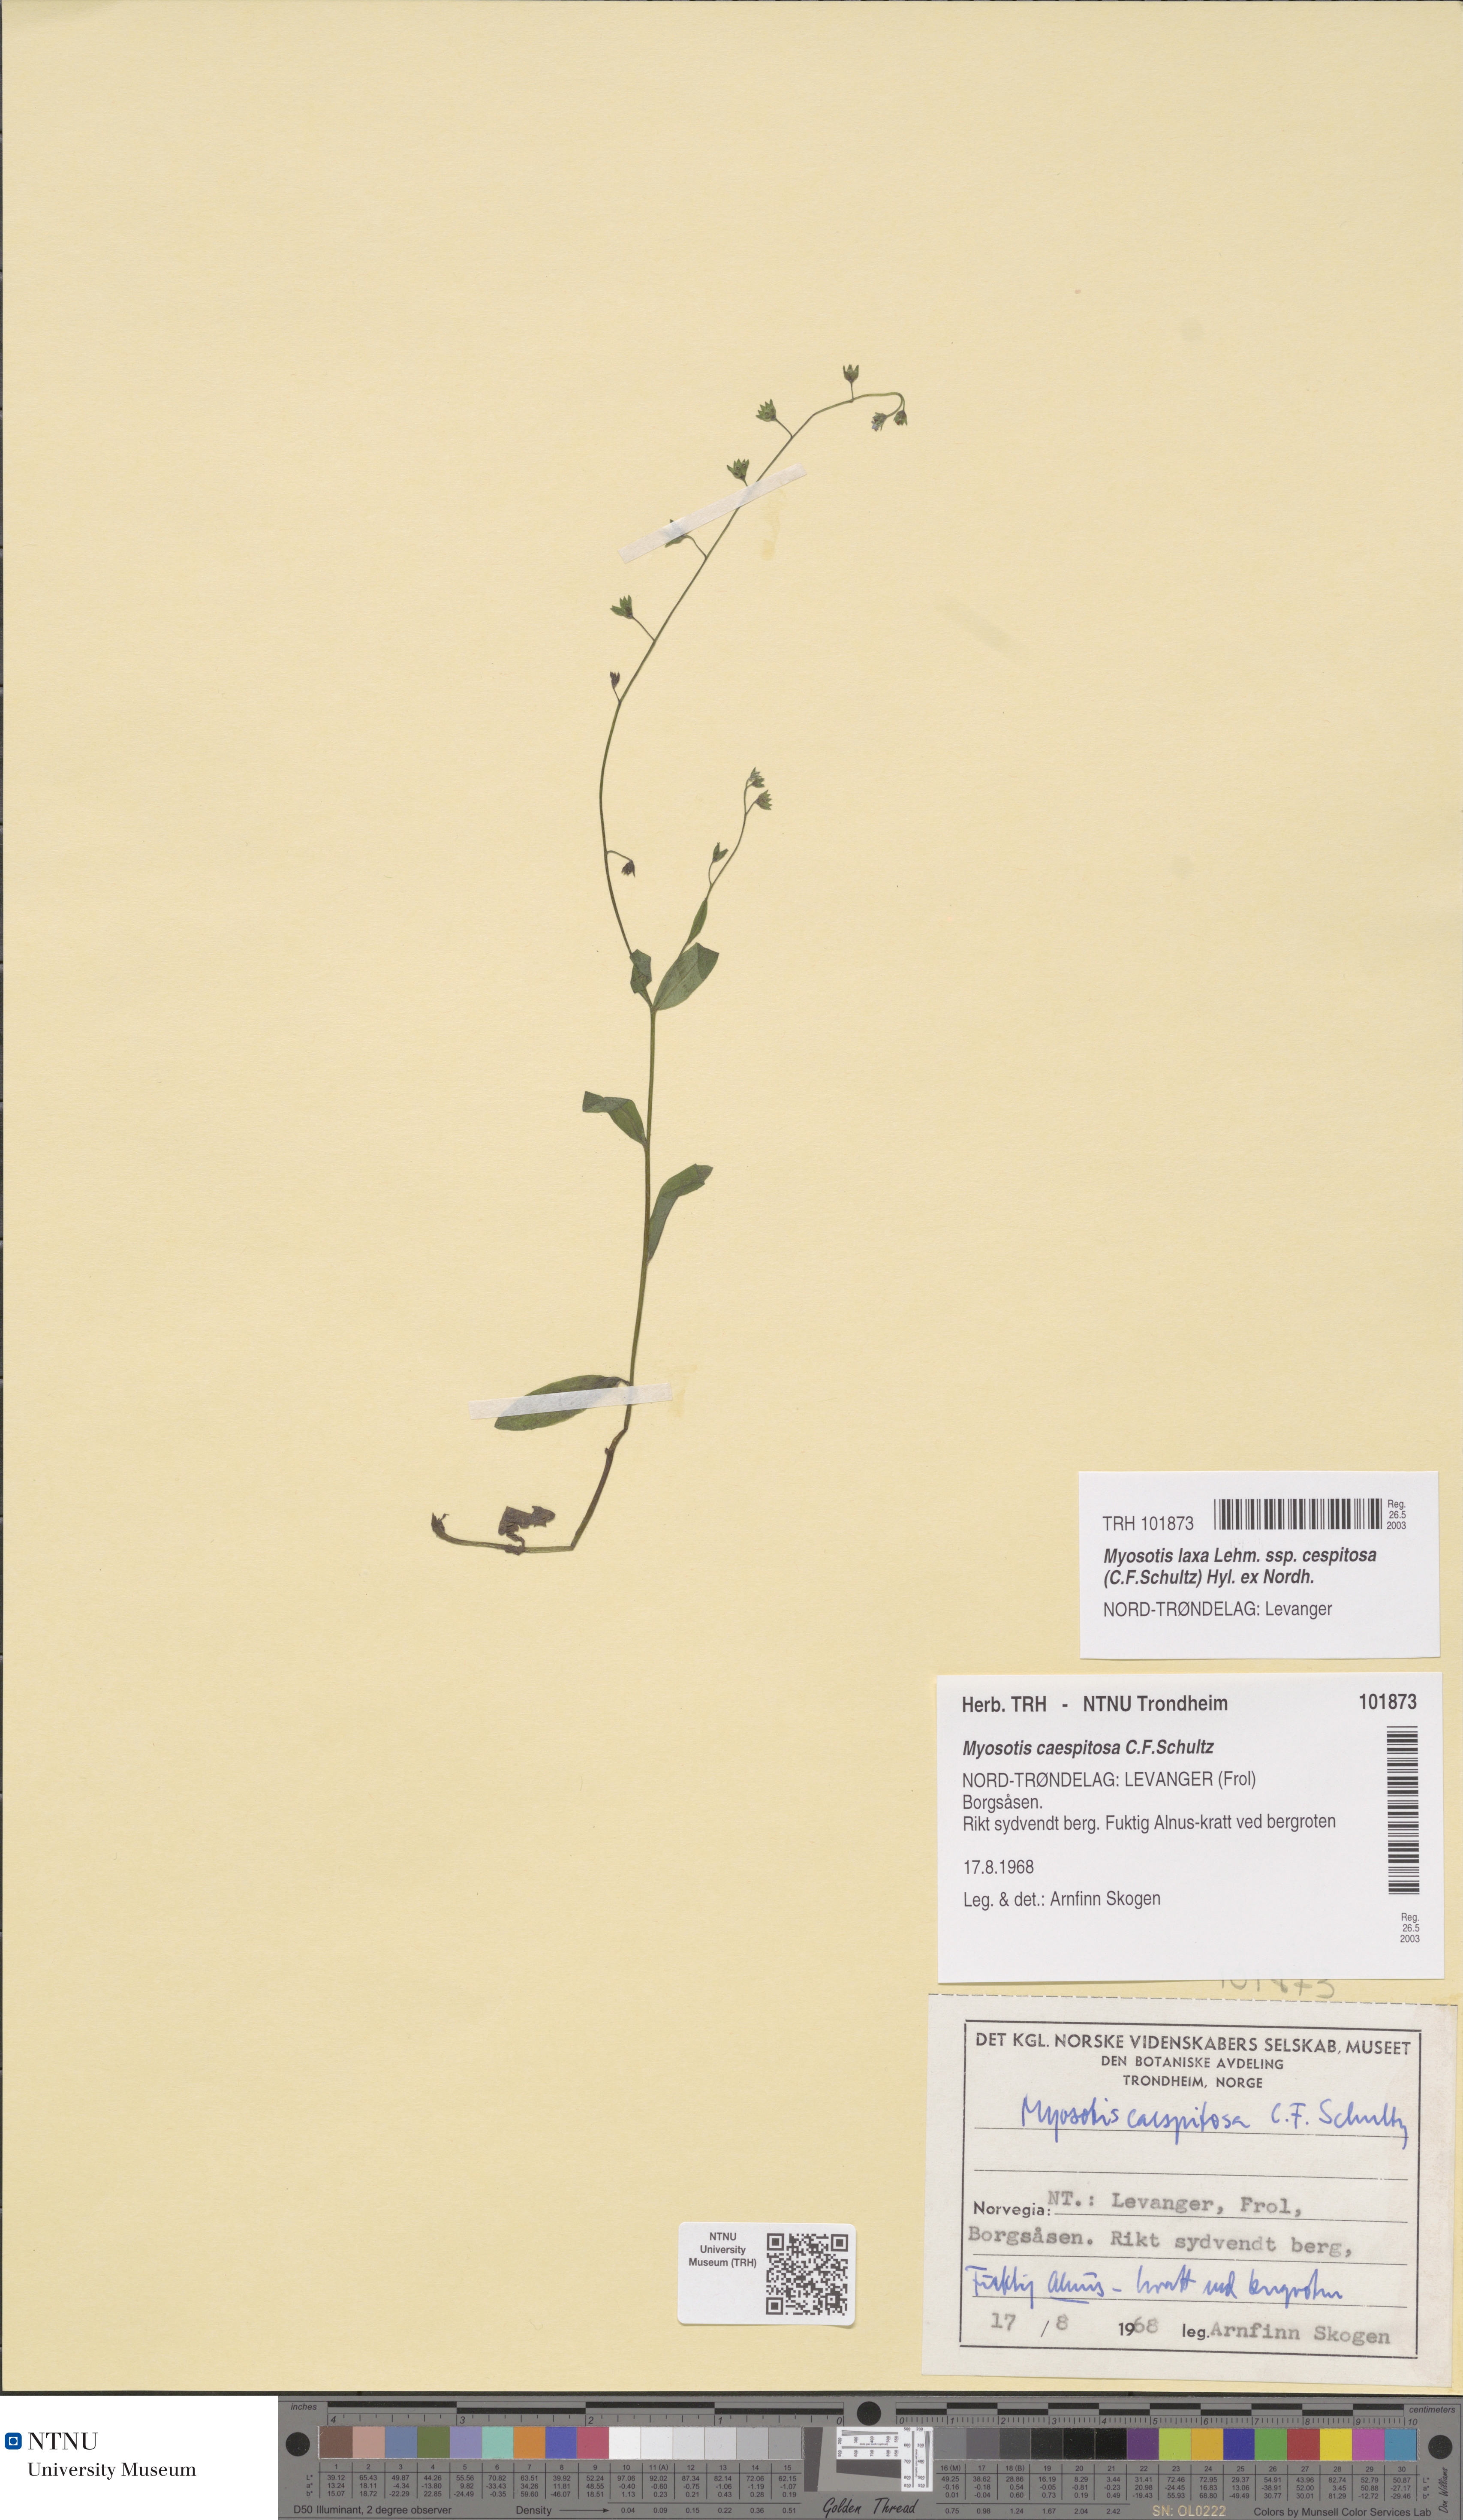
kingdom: Plantae
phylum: Tracheophyta
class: Magnoliopsida
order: Boraginales
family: Boraginaceae
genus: Myosotis
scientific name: Myosotis laxa
